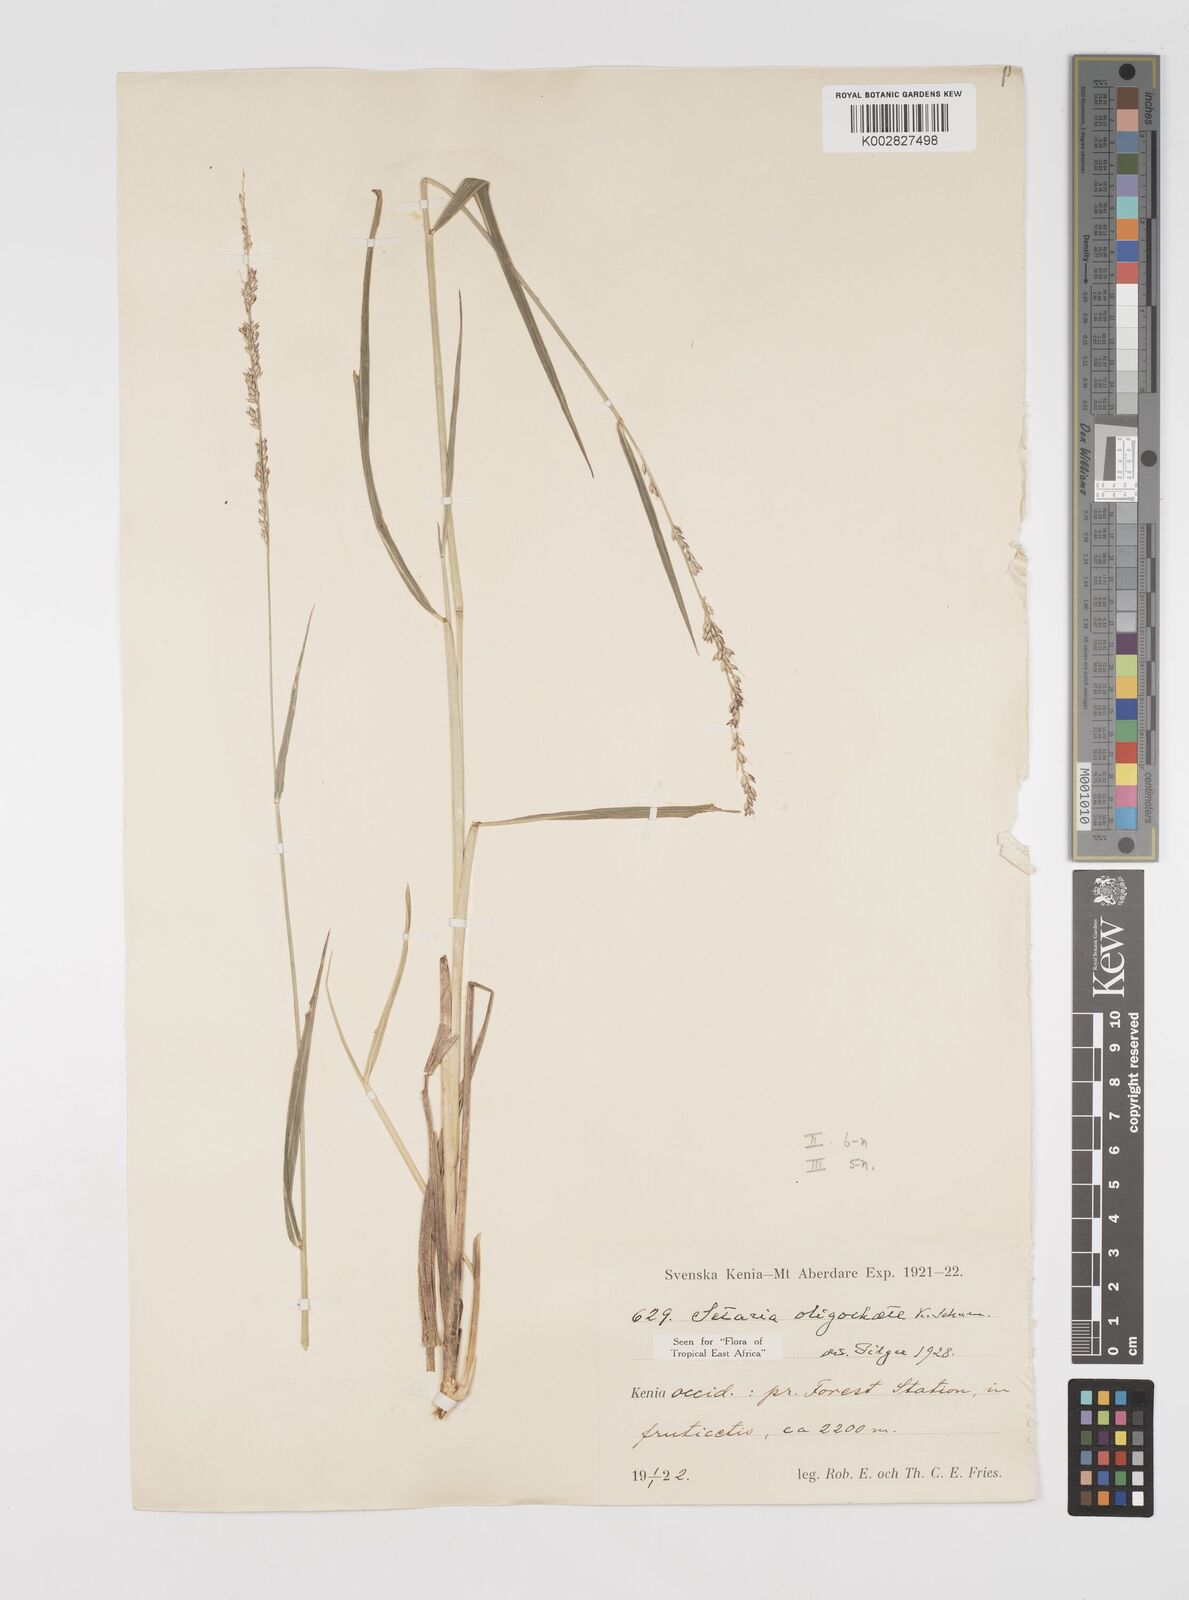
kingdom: Plantae
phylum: Tracheophyta
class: Liliopsida
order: Poales
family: Poaceae
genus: Setaria
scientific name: Setaria megaphylla
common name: Bigleaf bristlegrass
